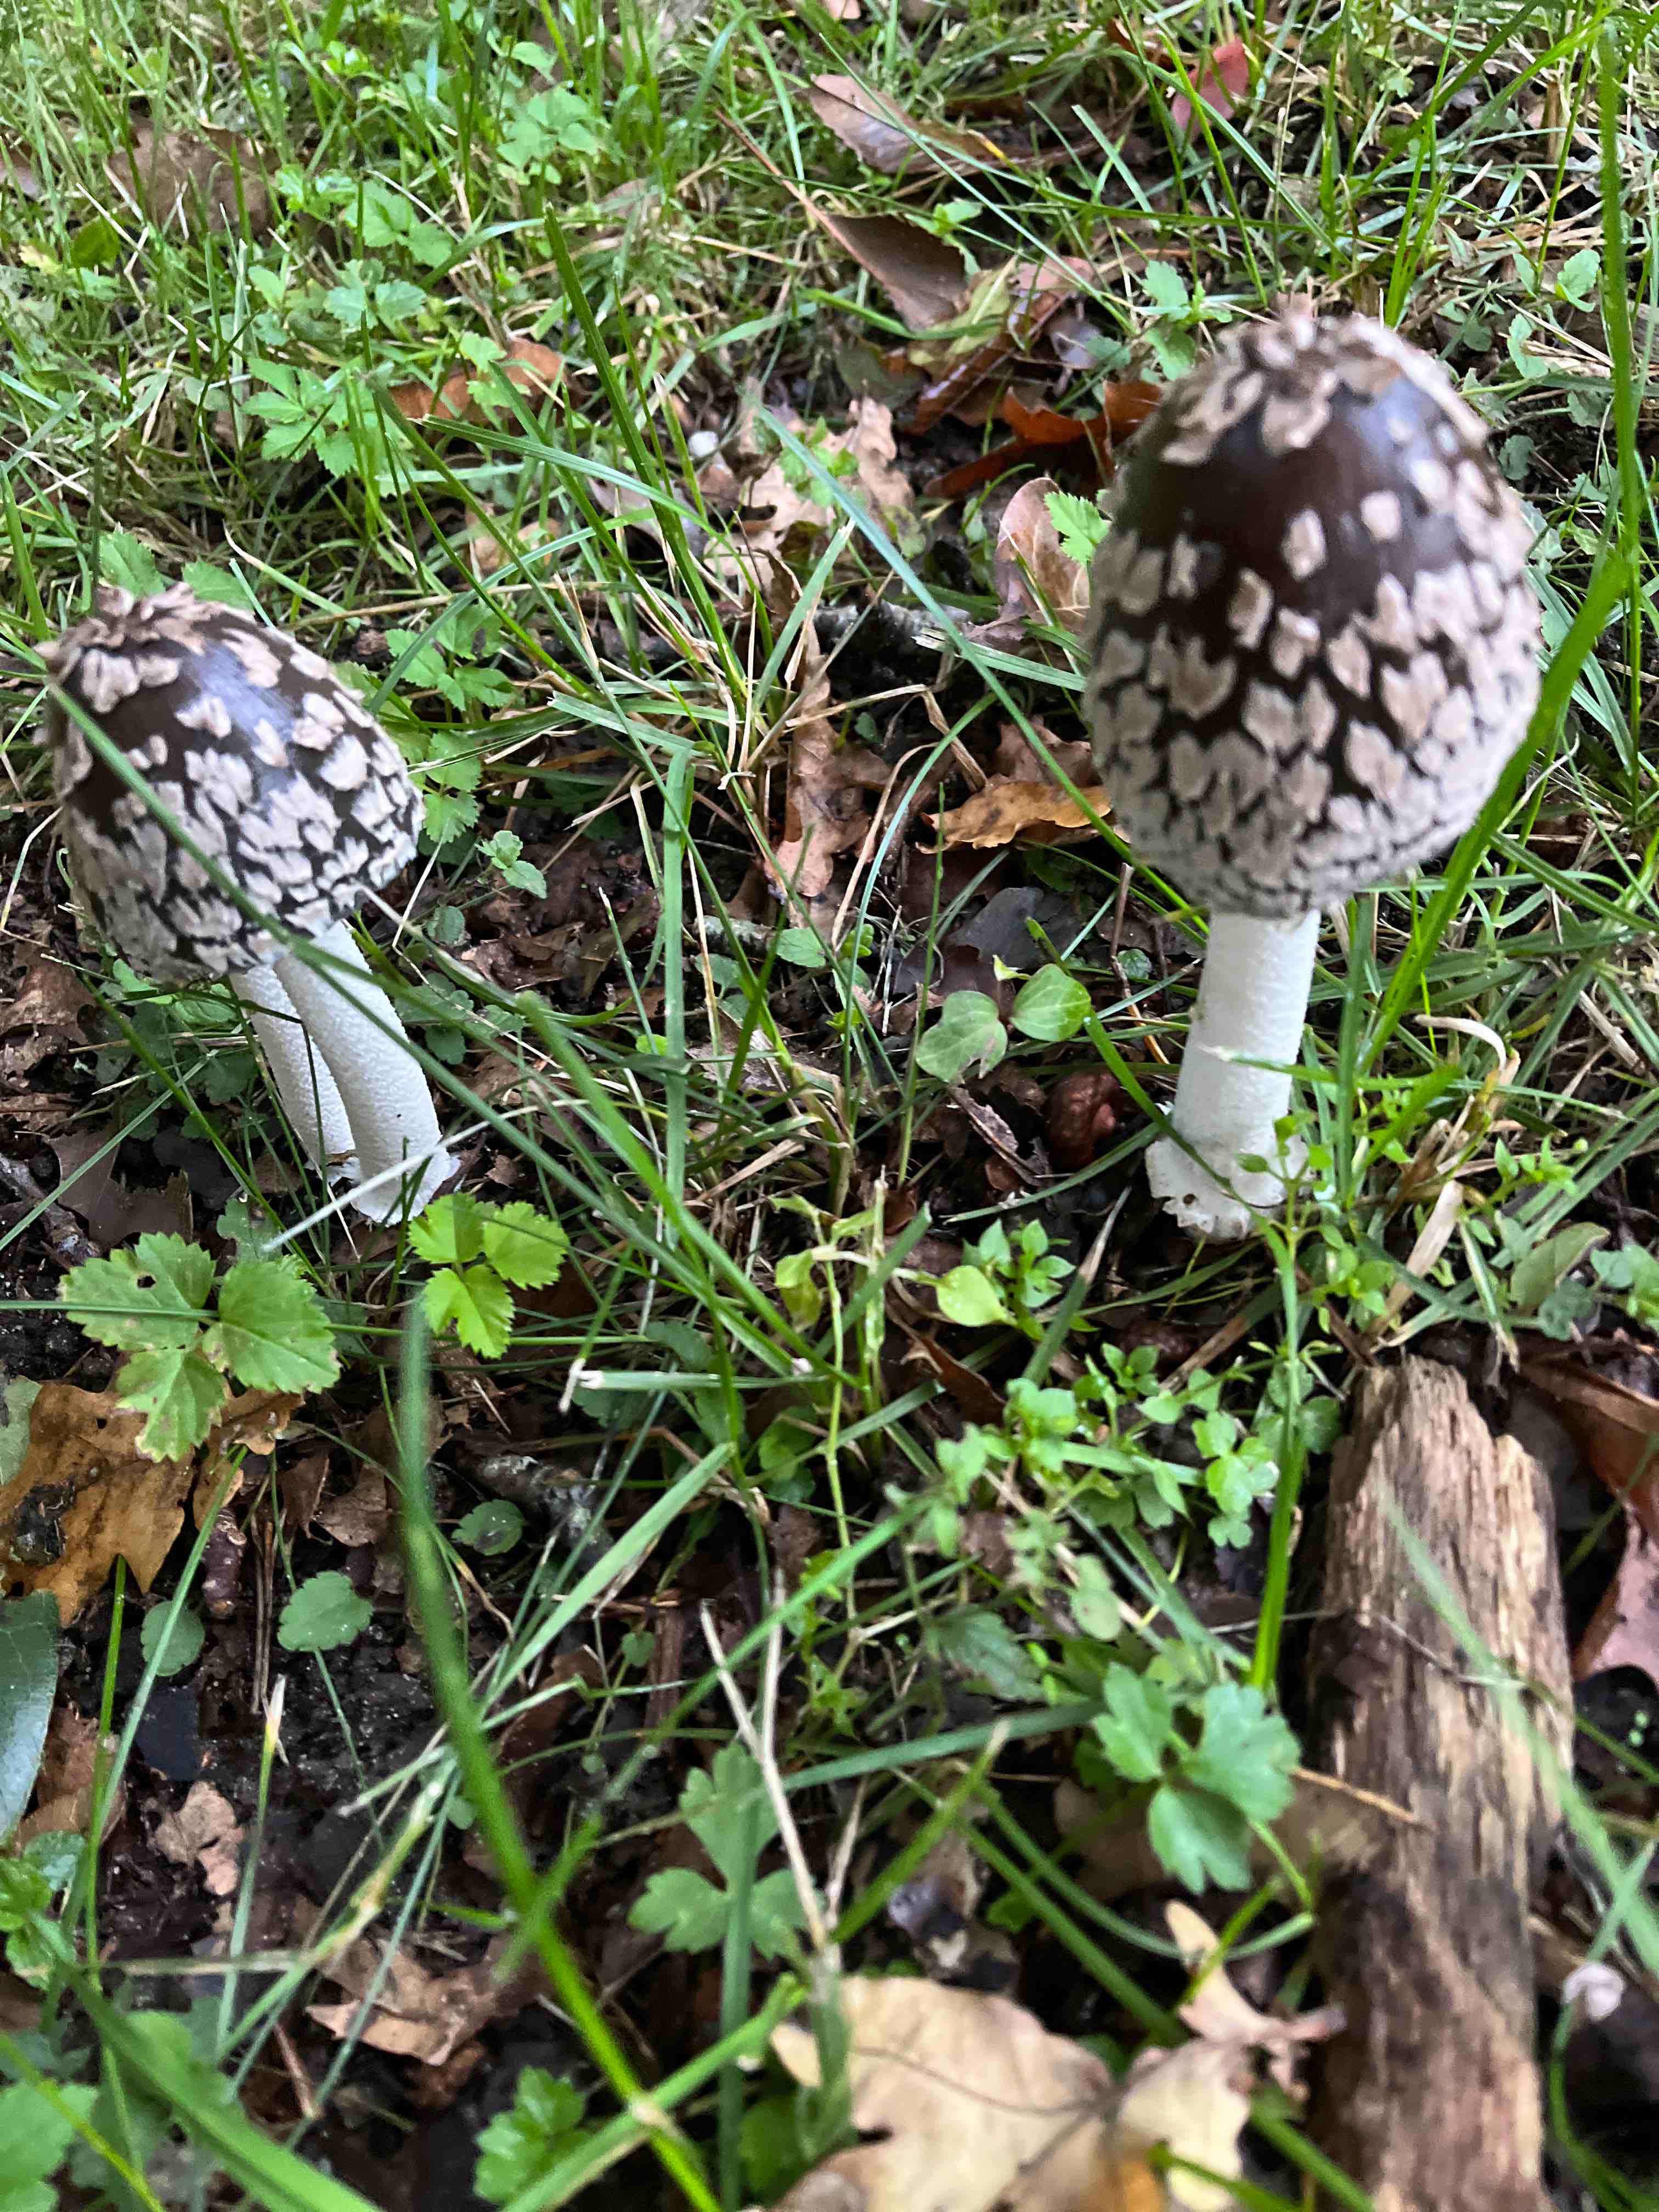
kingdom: Fungi
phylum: Basidiomycota
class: Agaricomycetes
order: Agaricales
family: Psathyrellaceae
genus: Coprinopsis
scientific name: Coprinopsis picacea
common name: skade-blækhat
